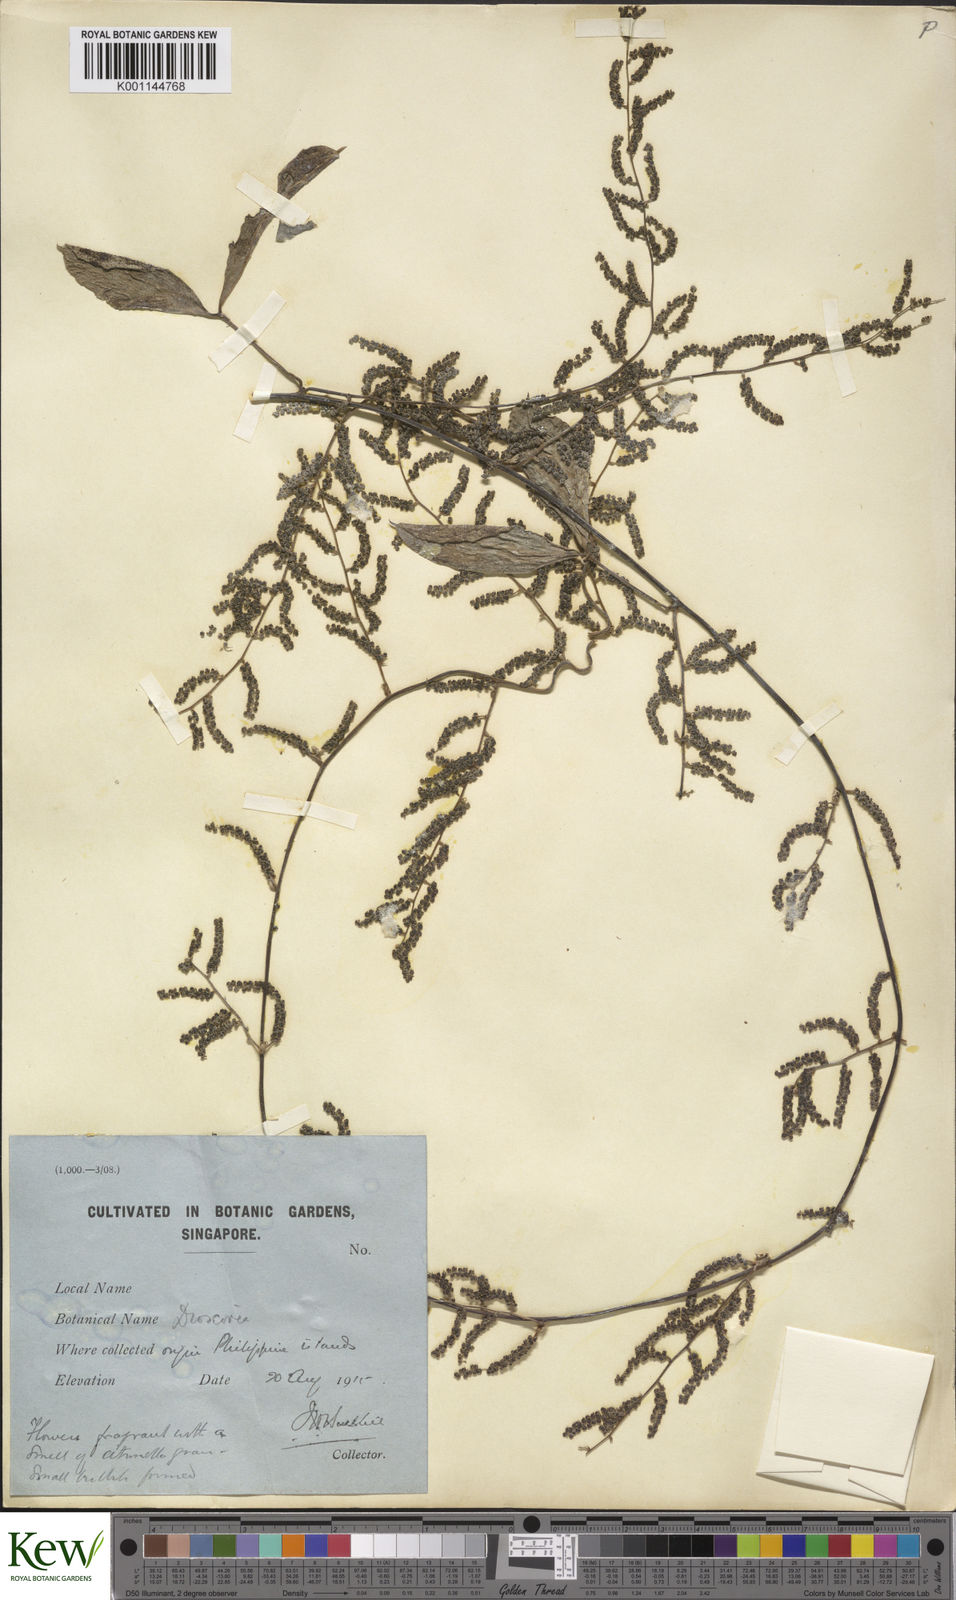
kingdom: Plantae
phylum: Tracheophyta
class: Liliopsida
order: Dioscoreales
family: Dioscoreaceae
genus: Dioscorea
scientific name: Dioscorea pentaphylla
